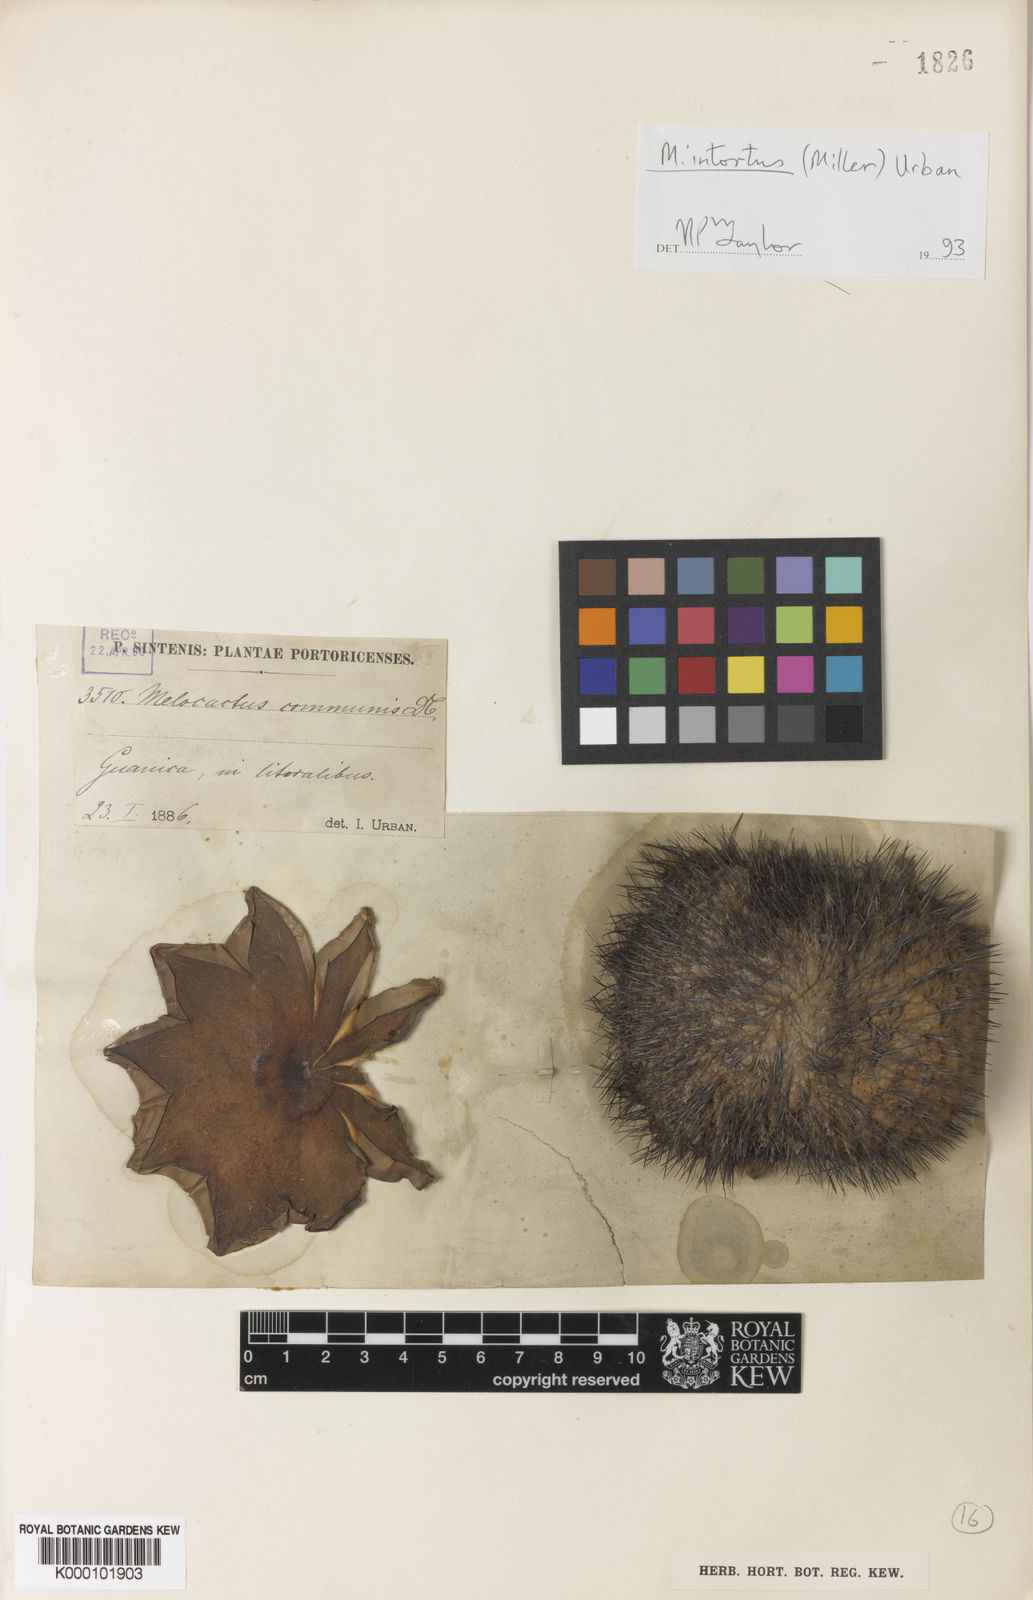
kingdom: Plantae
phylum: Tracheophyta
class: Magnoliopsida
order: Caryophyllales
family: Cactaceae
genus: Melocactus
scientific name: Melocactus intortus
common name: Barrel cactus
